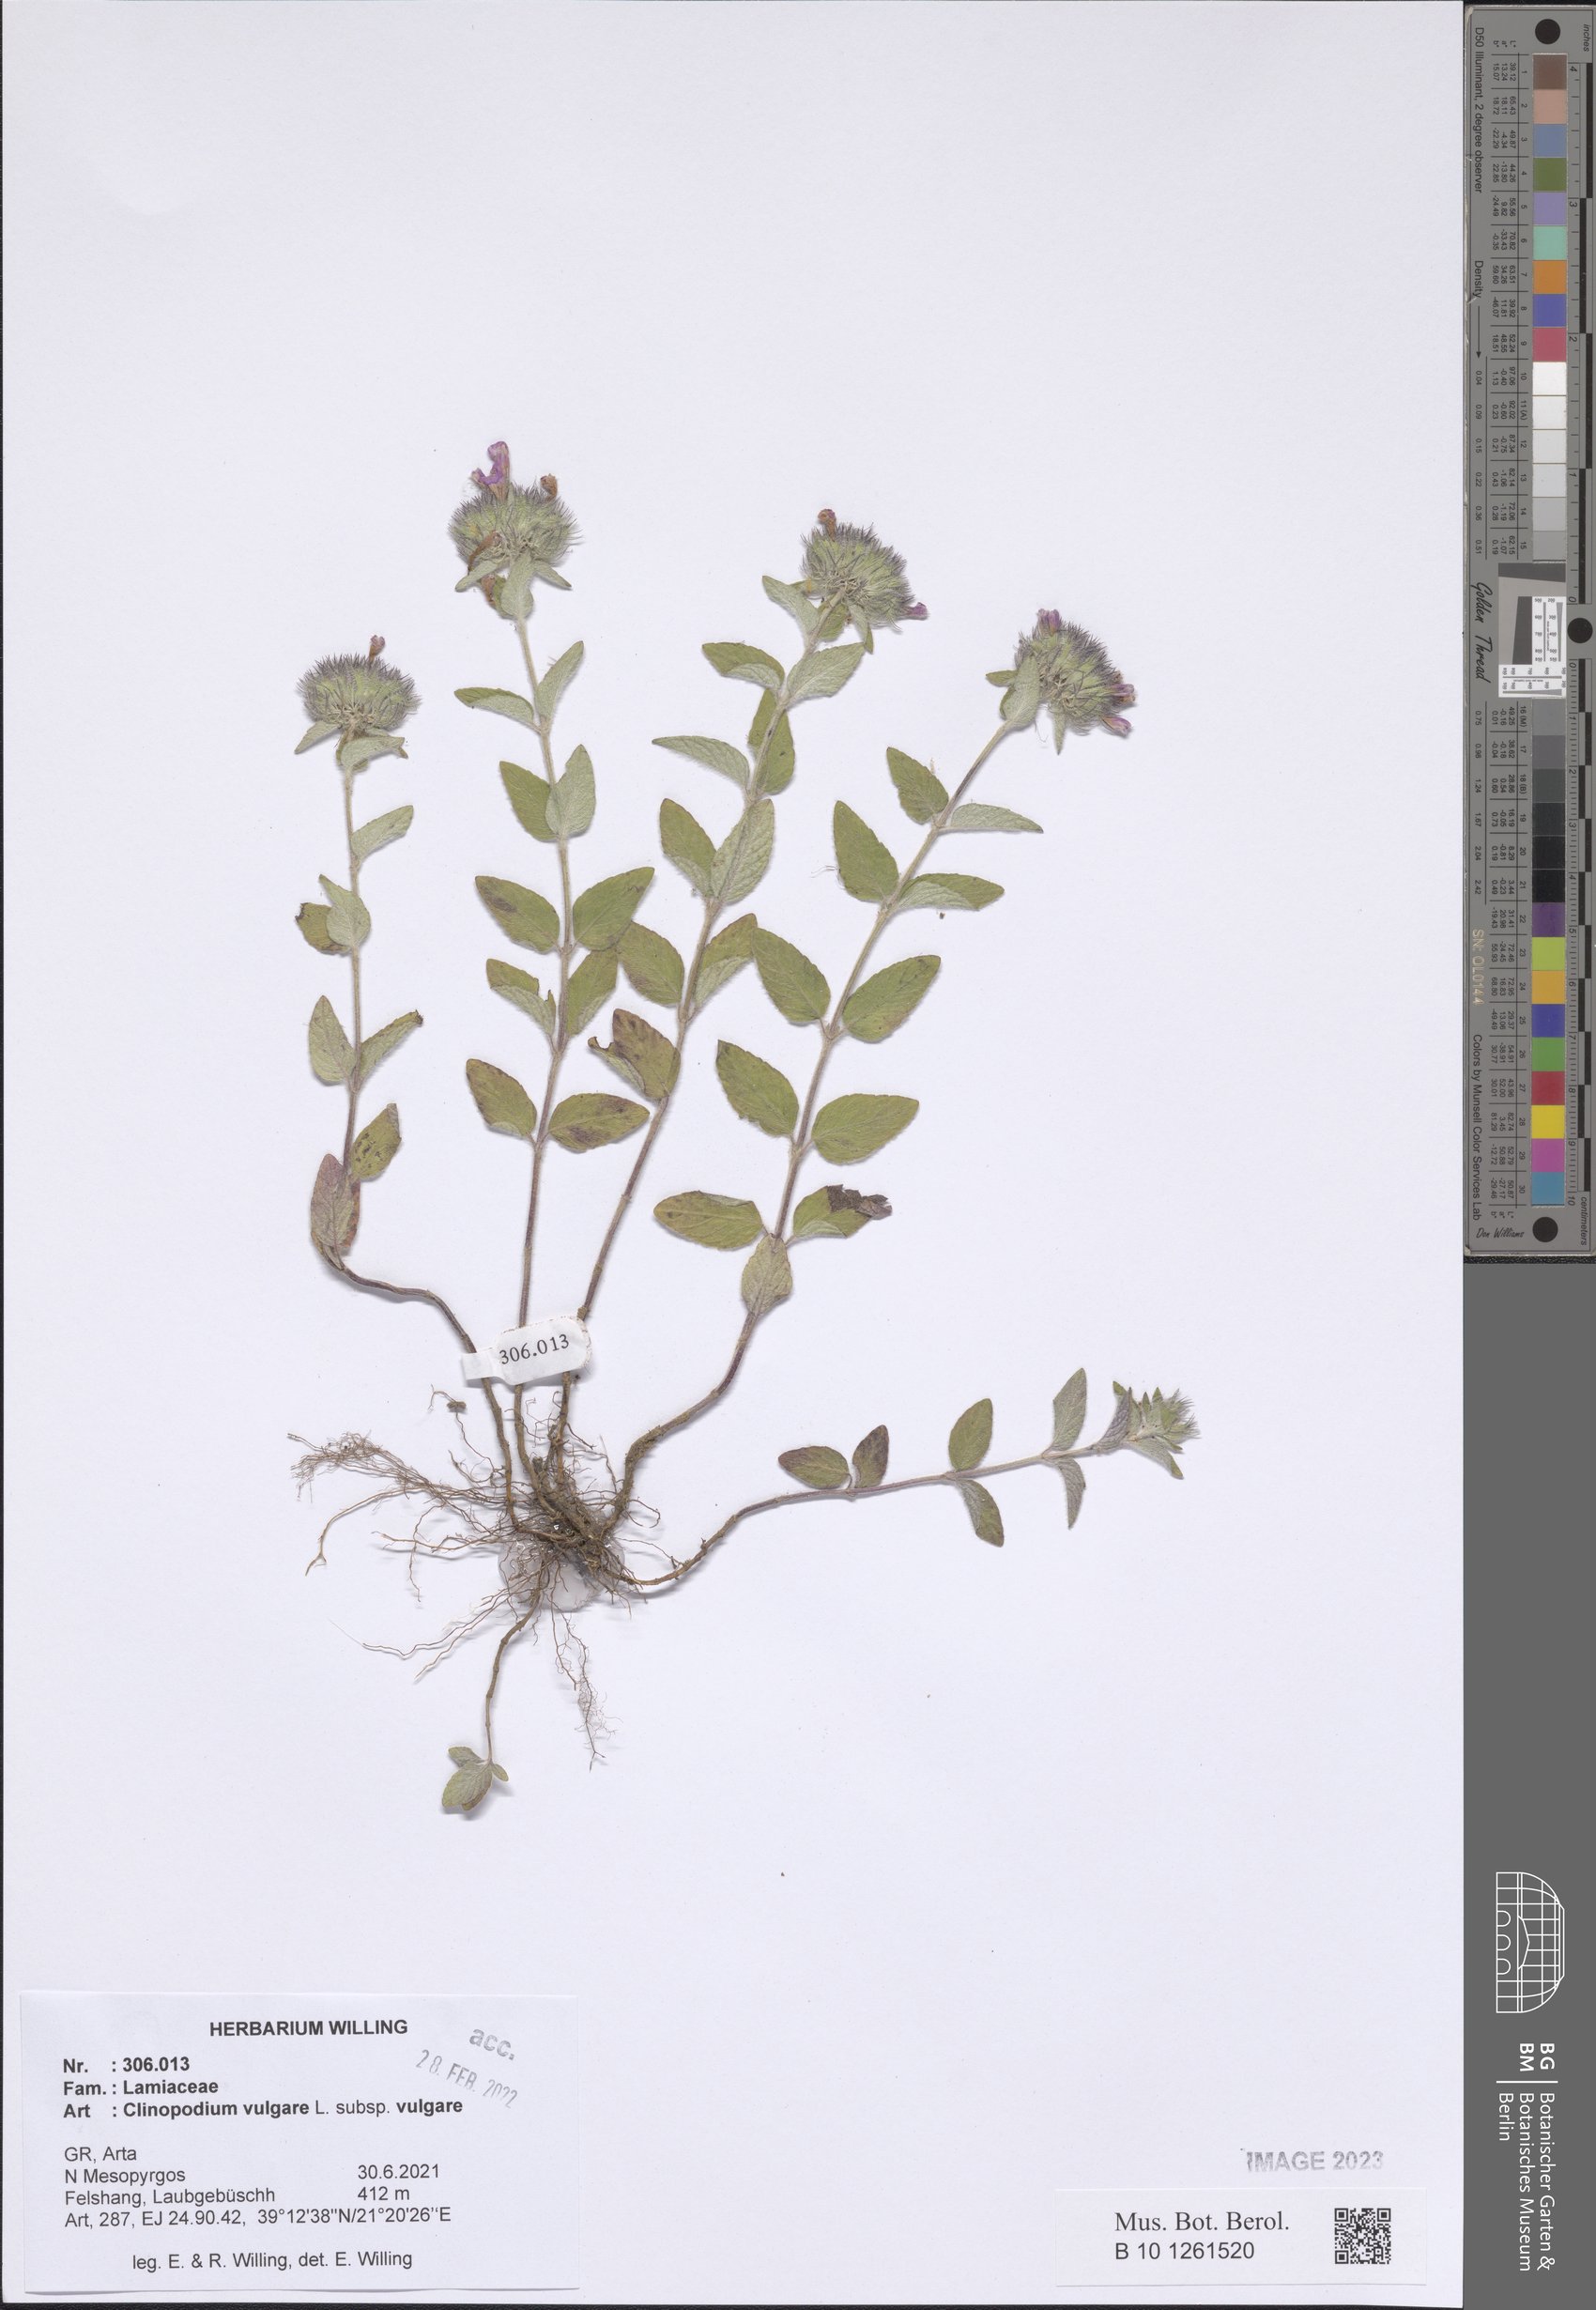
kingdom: Plantae
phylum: Tracheophyta
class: Magnoliopsida
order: Lamiales
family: Lamiaceae
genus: Clinopodium
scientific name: Clinopodium vulgare
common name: Wild basil
